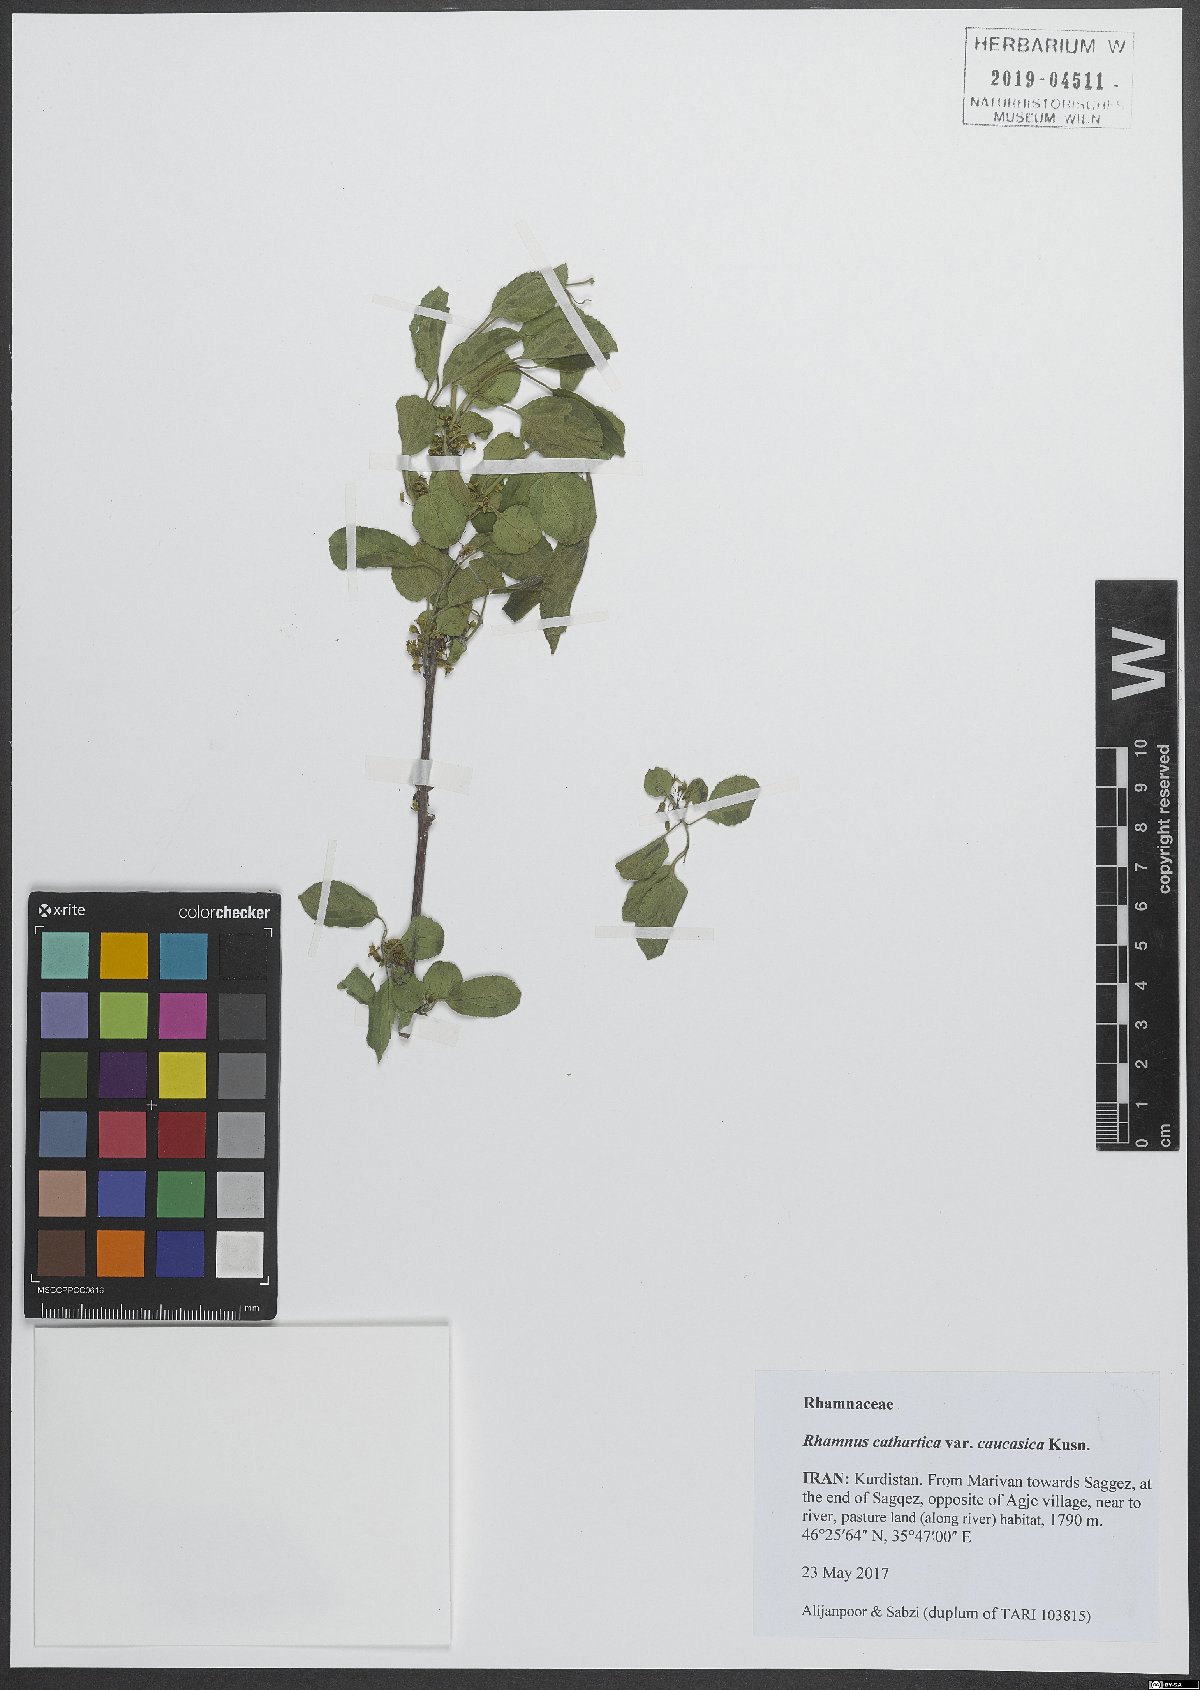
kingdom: Plantae
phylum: Tracheophyta
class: Magnoliopsida
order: Rosales
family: Rhamnaceae
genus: Rhamnus
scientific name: Rhamnus cathartica
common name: Common buckthorn
